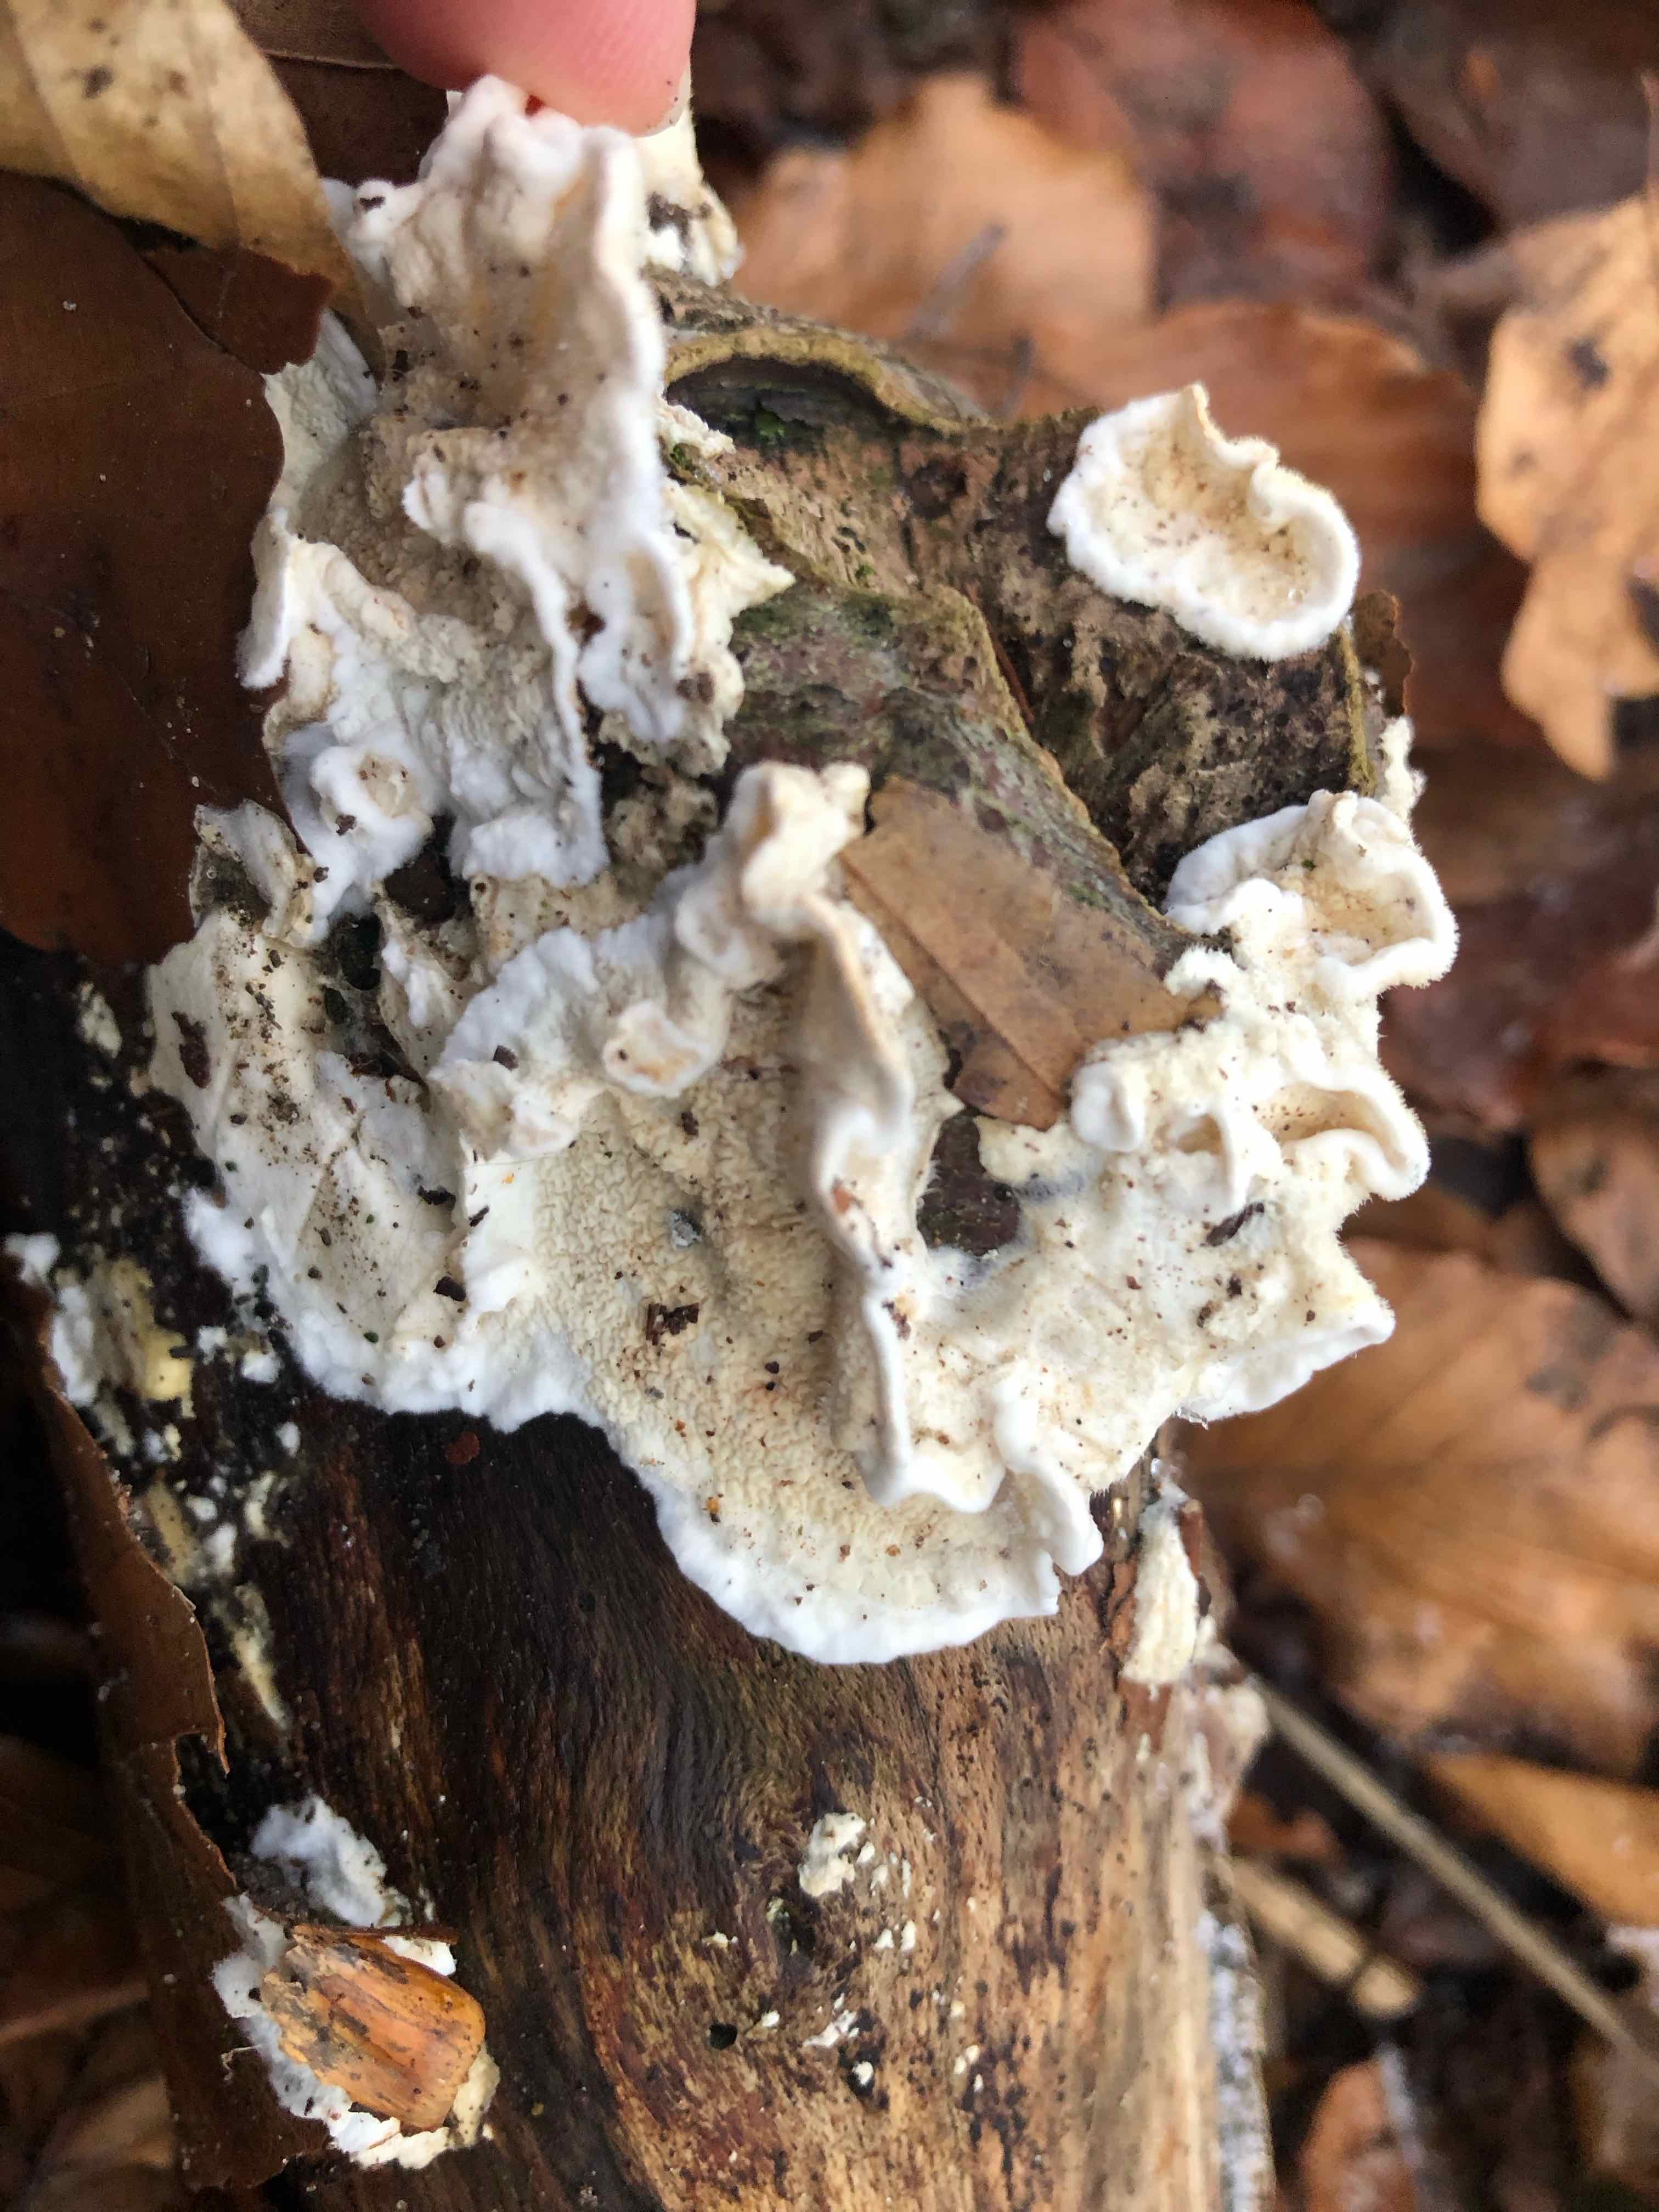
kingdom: Fungi
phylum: Basidiomycota
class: Agaricomycetes
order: Polyporales
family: Irpicaceae
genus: Byssomerulius
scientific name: Byssomerulius corium
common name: læder-åresvamp
